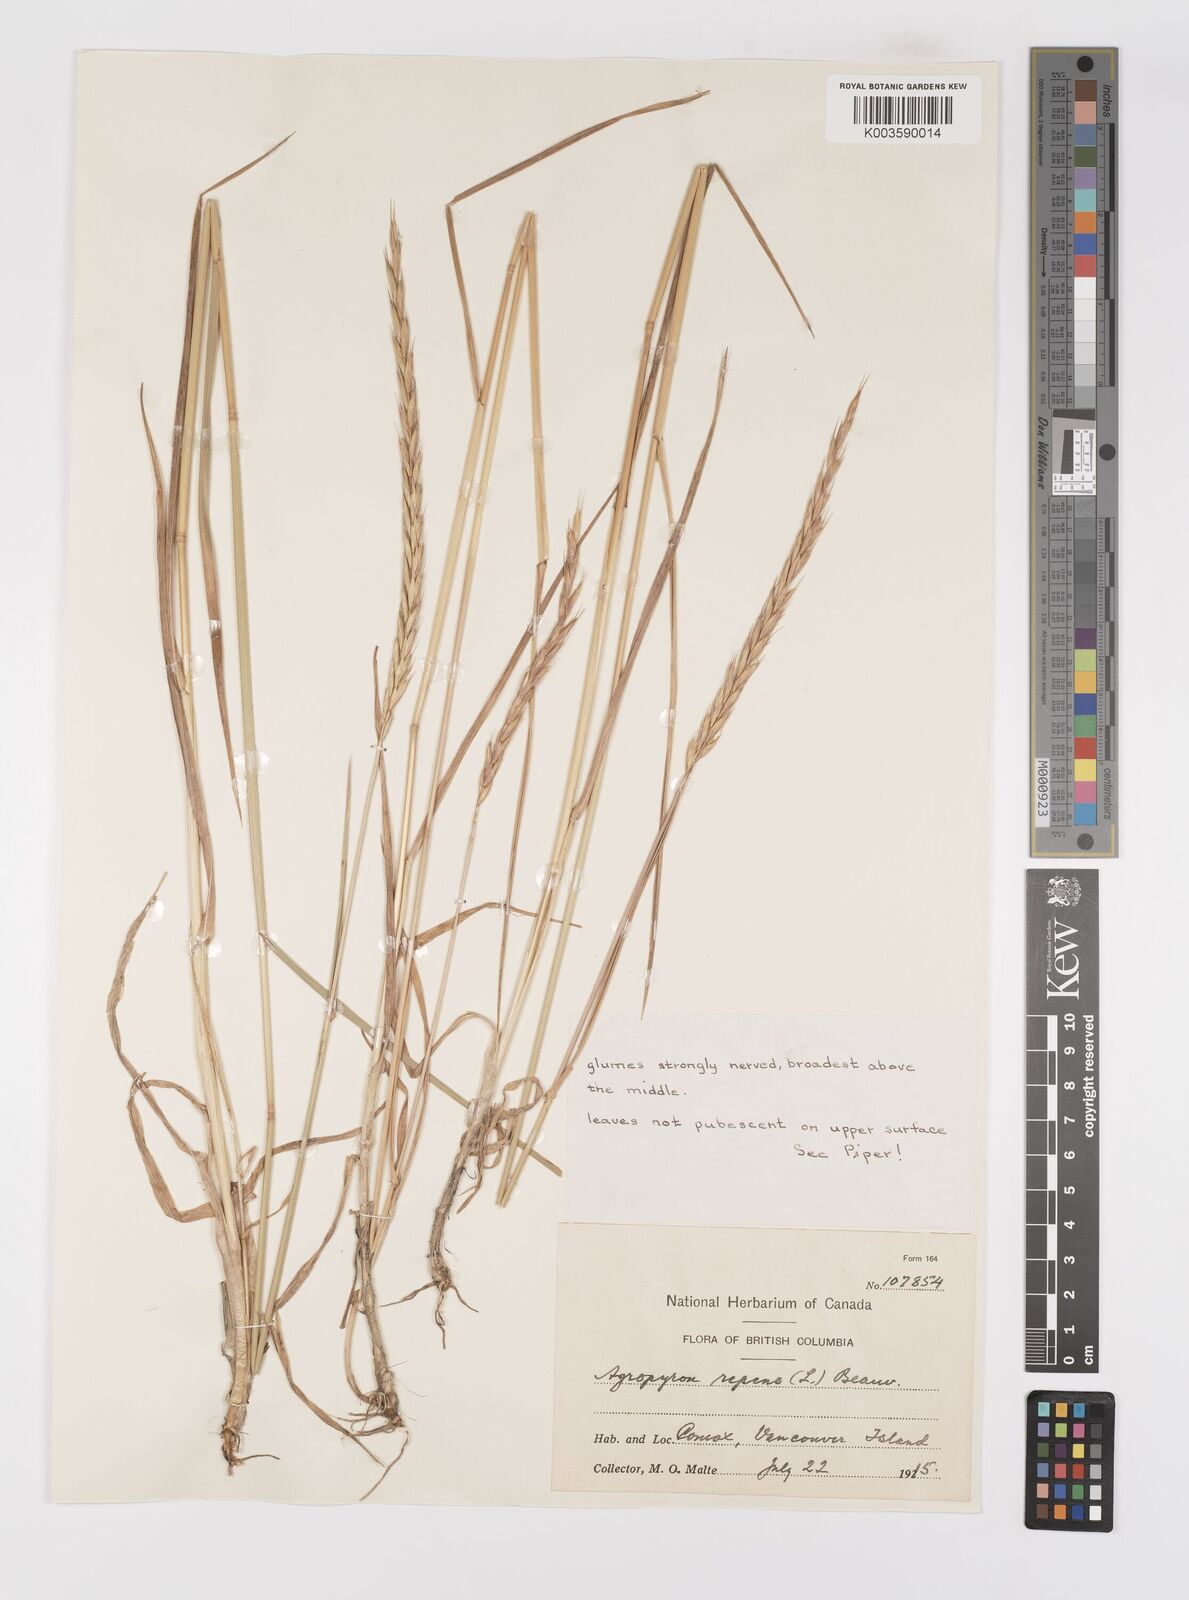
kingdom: Plantae
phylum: Tracheophyta
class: Liliopsida
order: Poales
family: Poaceae
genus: Elymus
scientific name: Elymus repens
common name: Quackgrass
